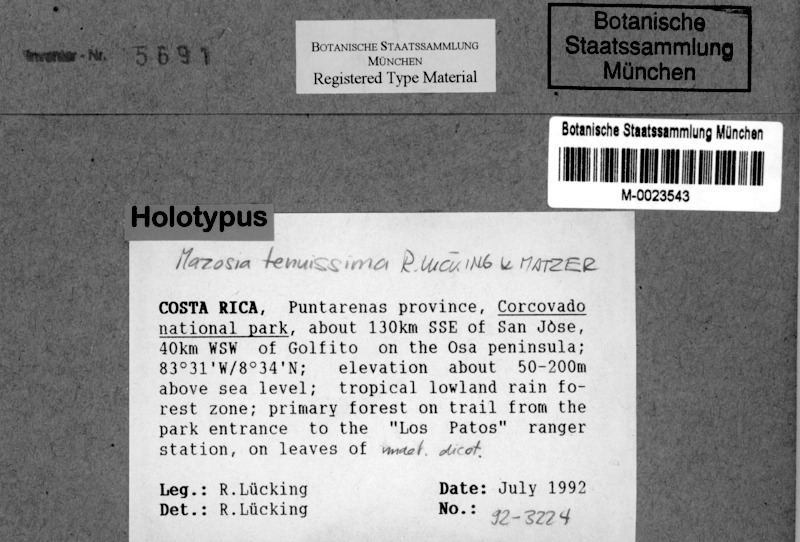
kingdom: Fungi
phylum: Ascomycota
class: Arthoniomycetes
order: Arthoniales
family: Roccellaceae
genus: Mazosia
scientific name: Mazosia tenuissima
